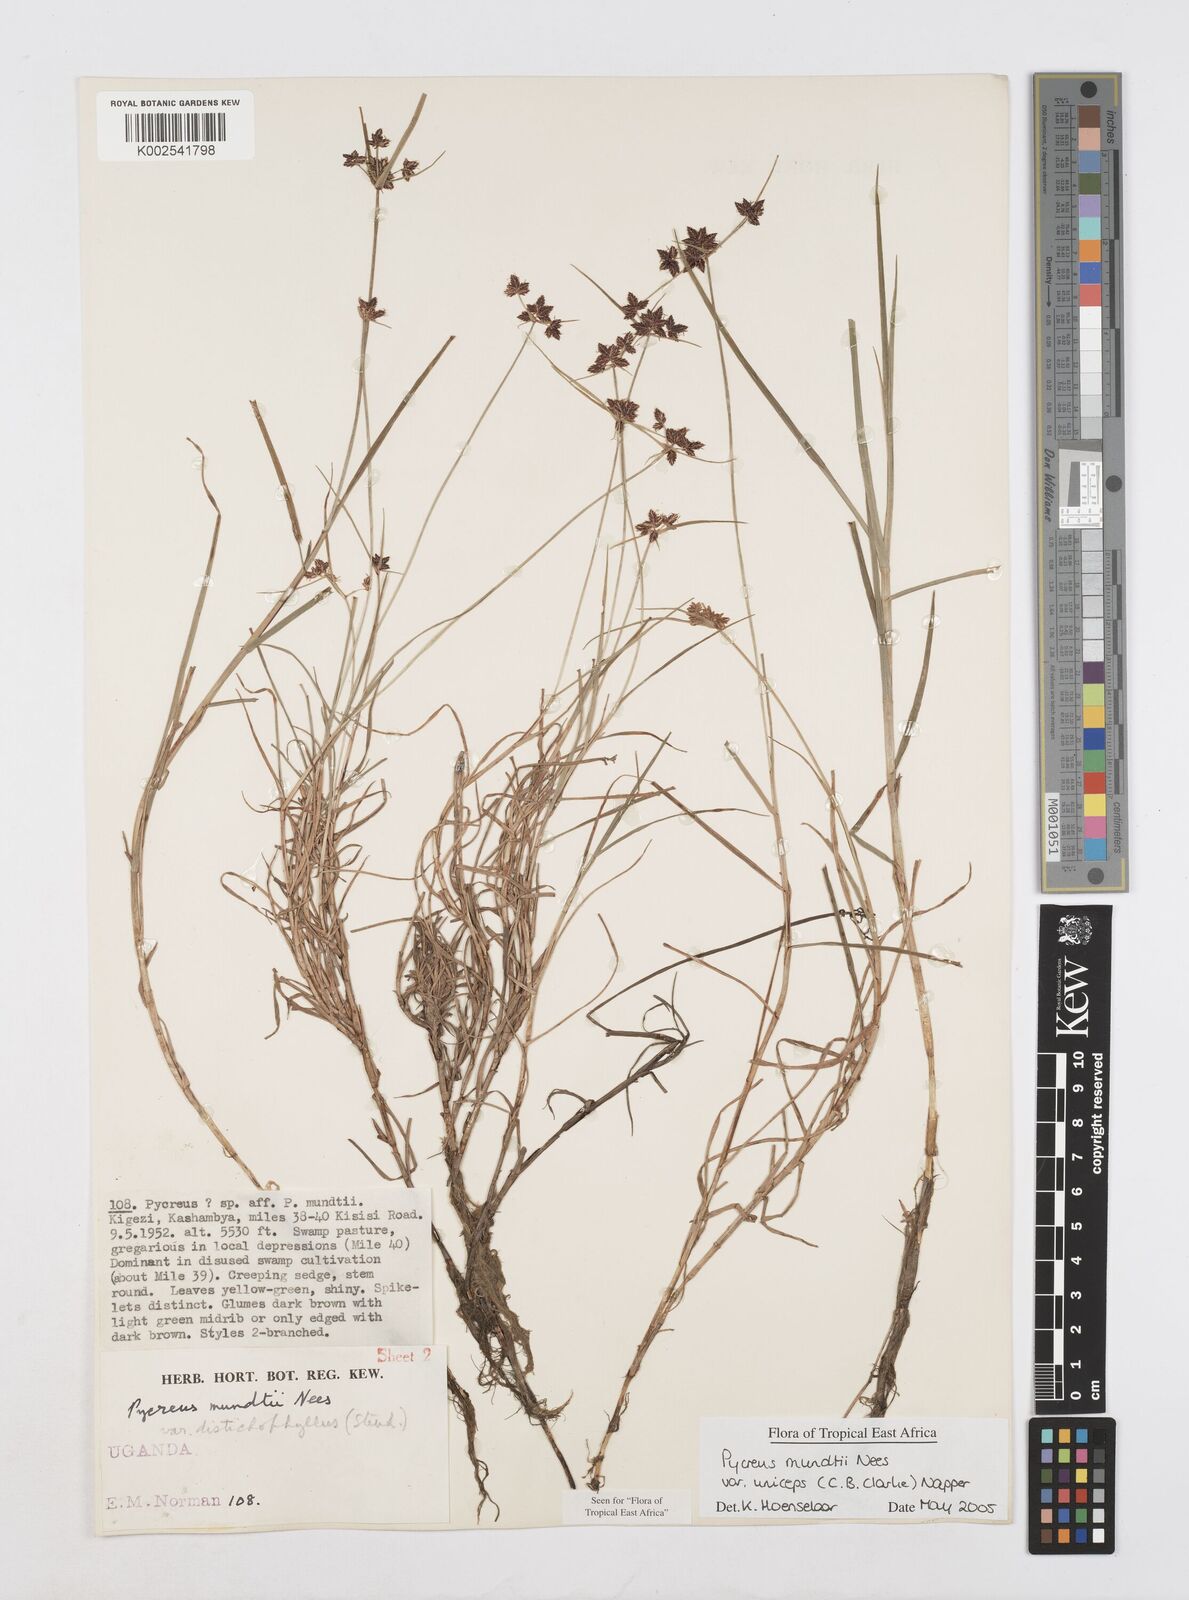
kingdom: Plantae
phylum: Tracheophyta
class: Liliopsida
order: Poales
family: Cyperaceae
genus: Cyperus
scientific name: Cyperus mundii
